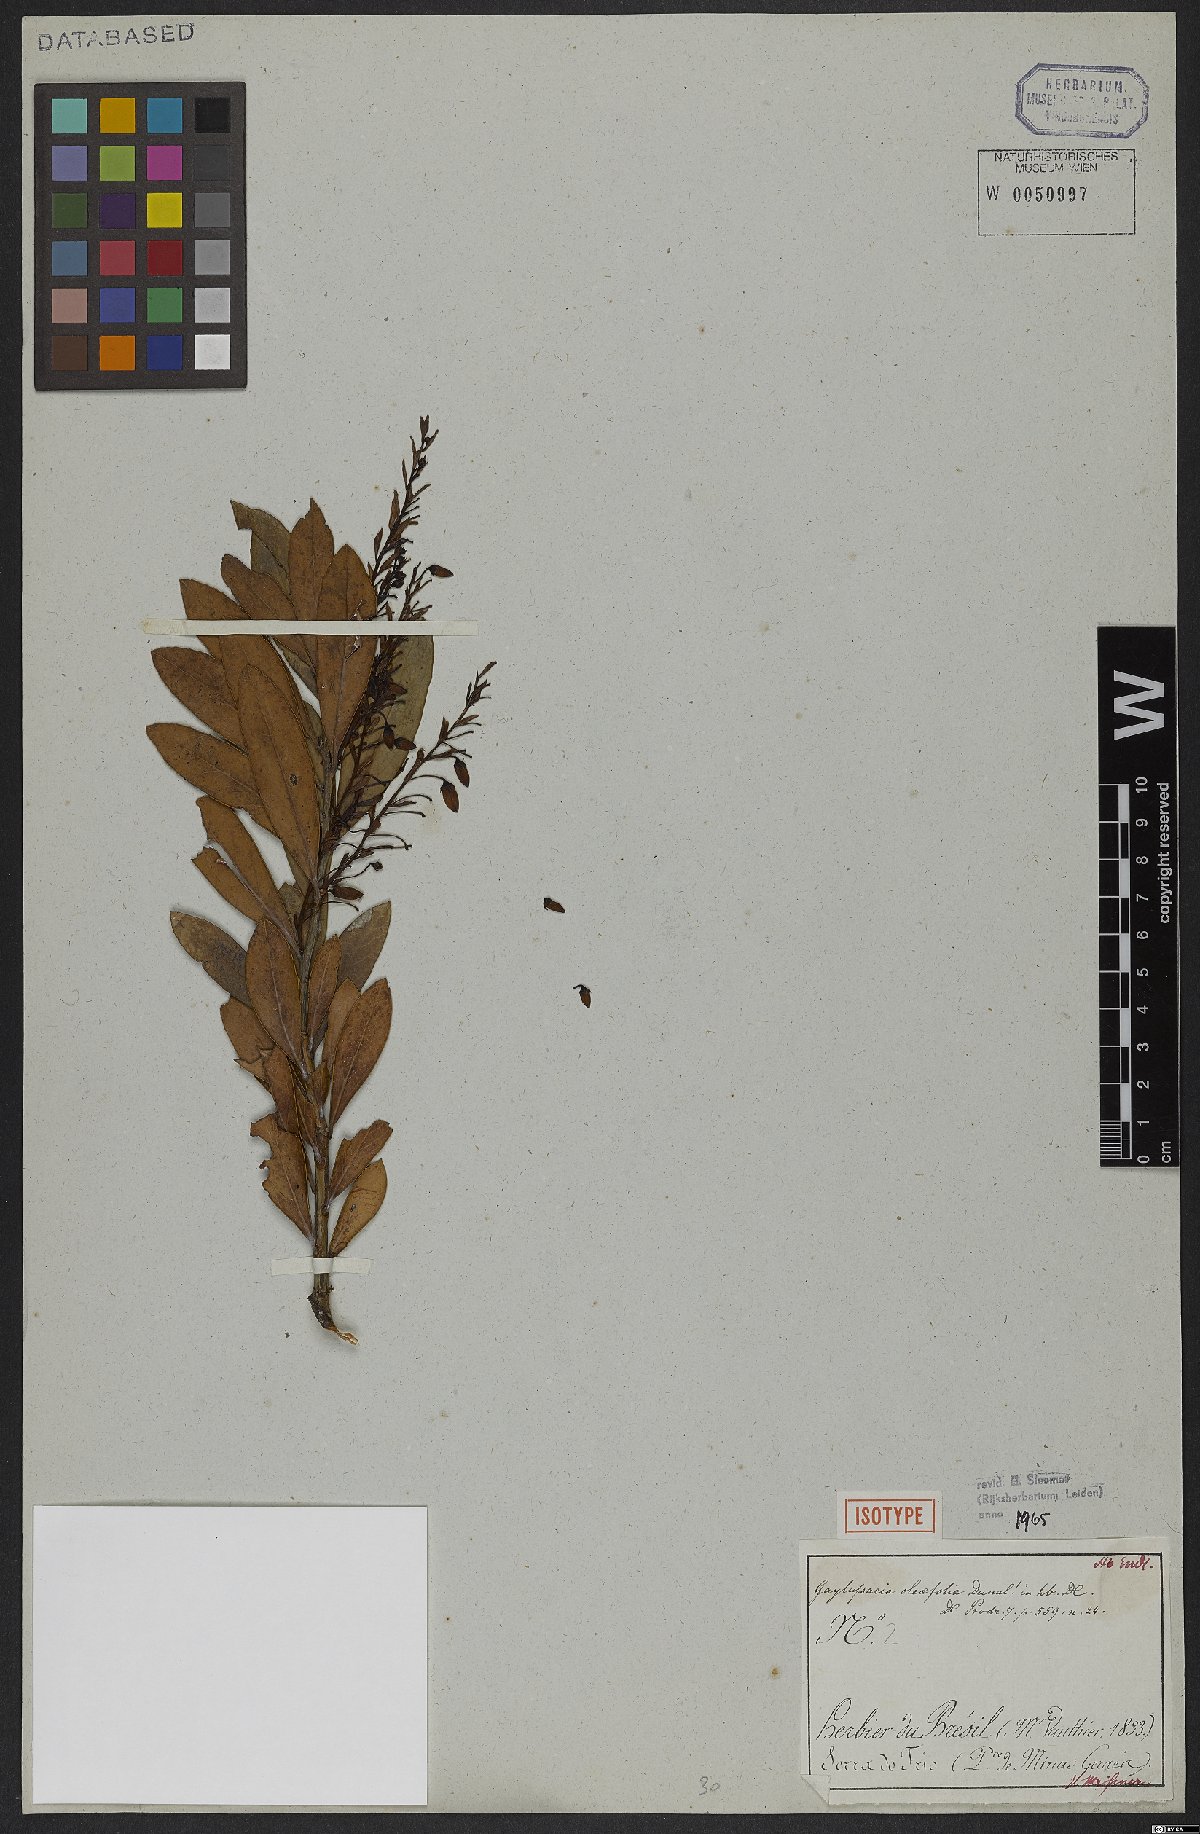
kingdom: Plantae
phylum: Tracheophyta
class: Magnoliopsida
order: Ericales
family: Ericaceae
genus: Gaylussacia
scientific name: Gaylussacia oleifolia
